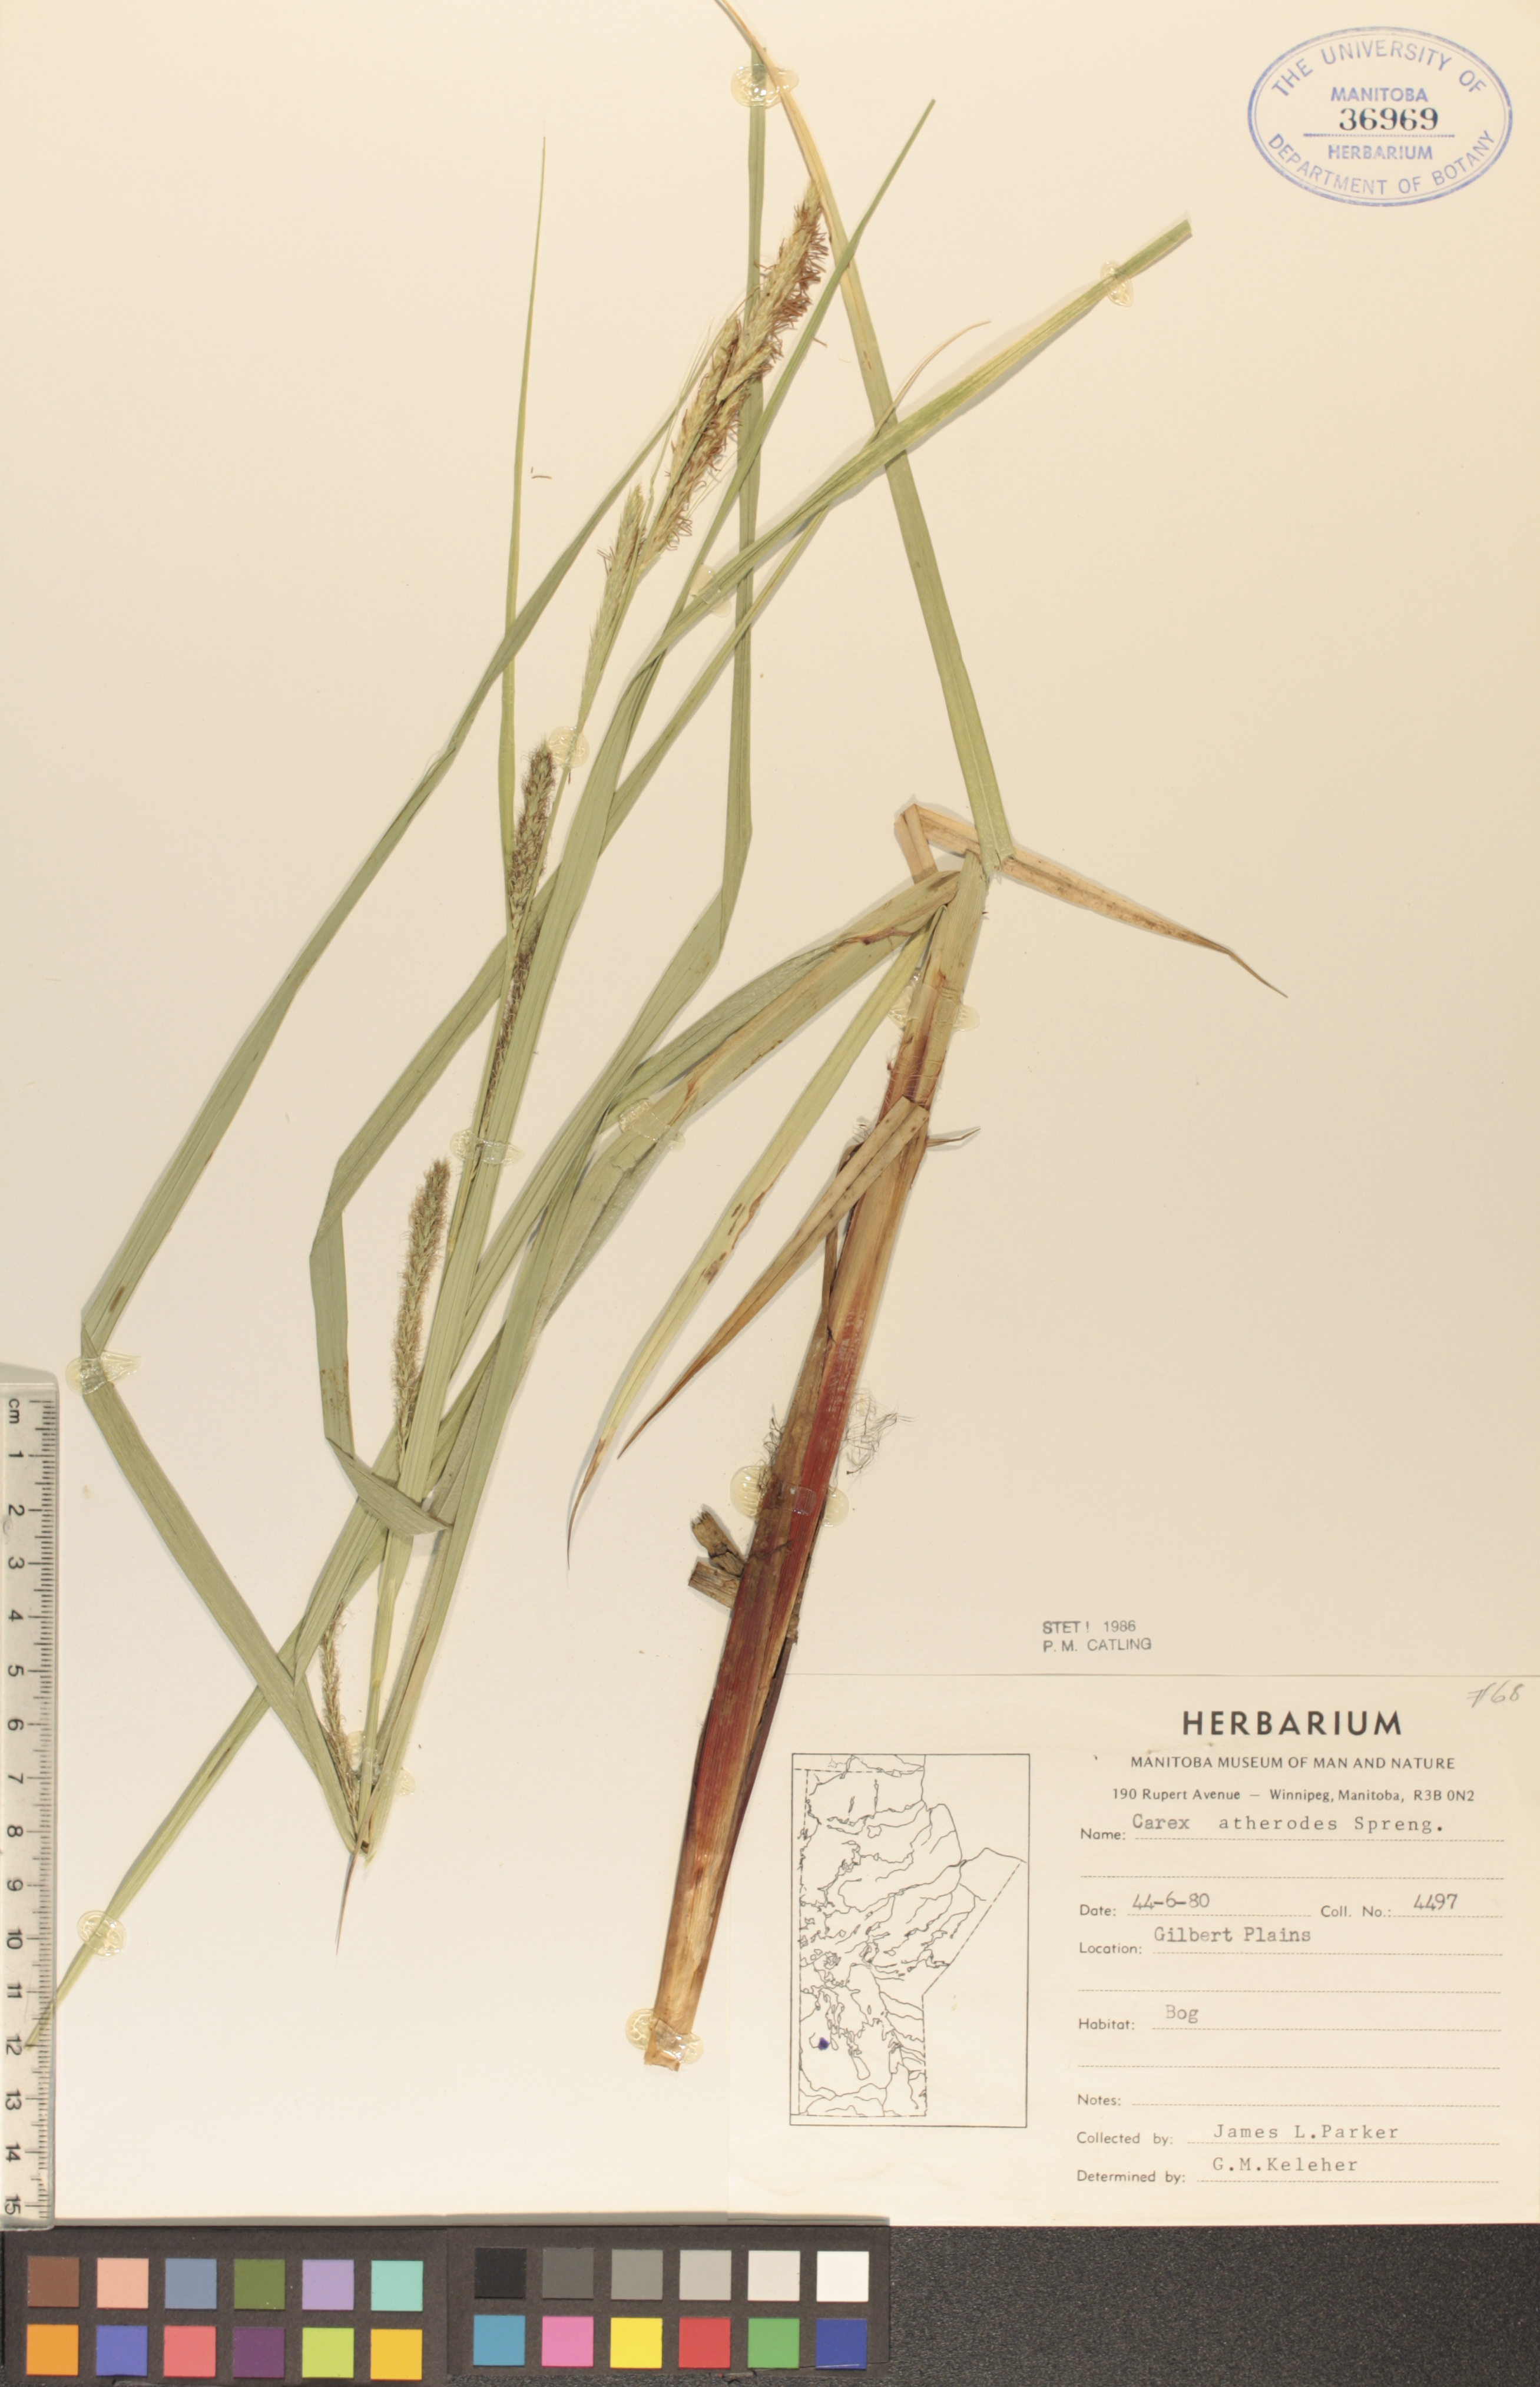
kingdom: Plantae
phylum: Tracheophyta
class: Liliopsida
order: Poales
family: Cyperaceae
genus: Carex
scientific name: Carex atherodes
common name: Wheat sedge
